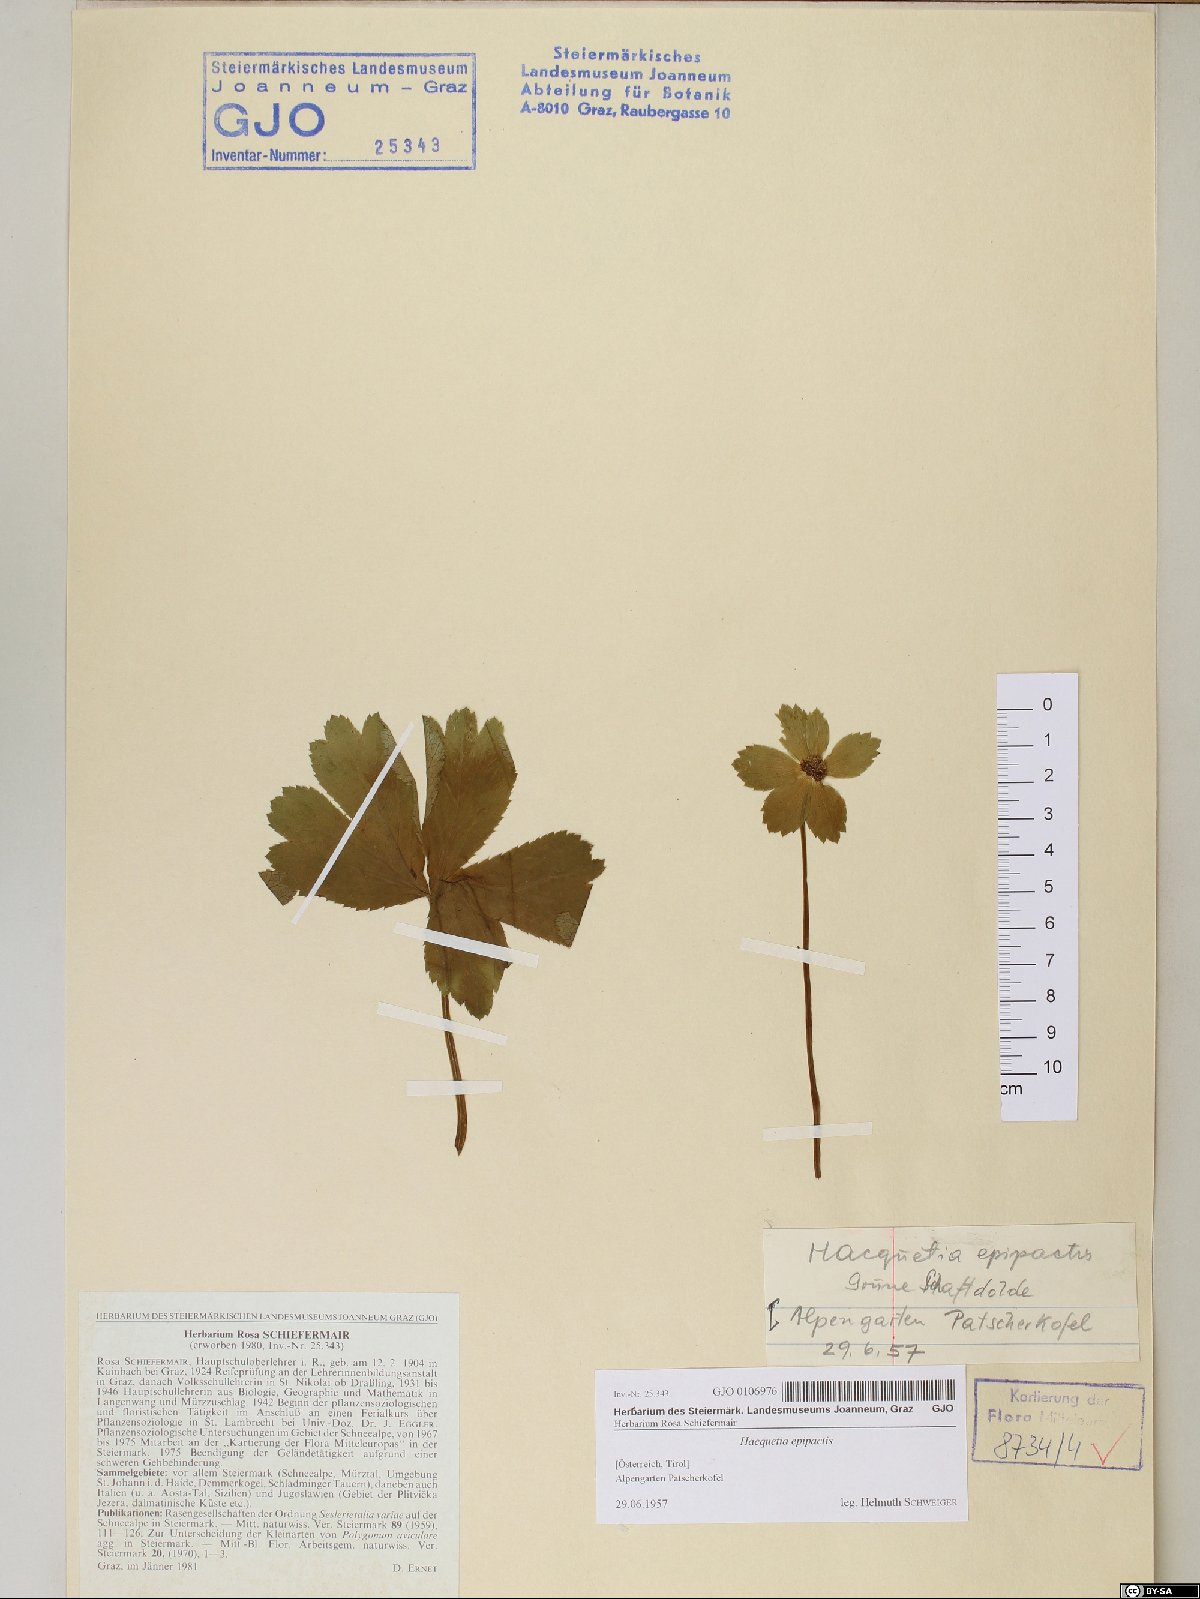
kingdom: Plantae
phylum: Tracheophyta
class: Magnoliopsida
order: Apiales
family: Apiaceae
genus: Sanicula
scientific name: Sanicula epipactis
